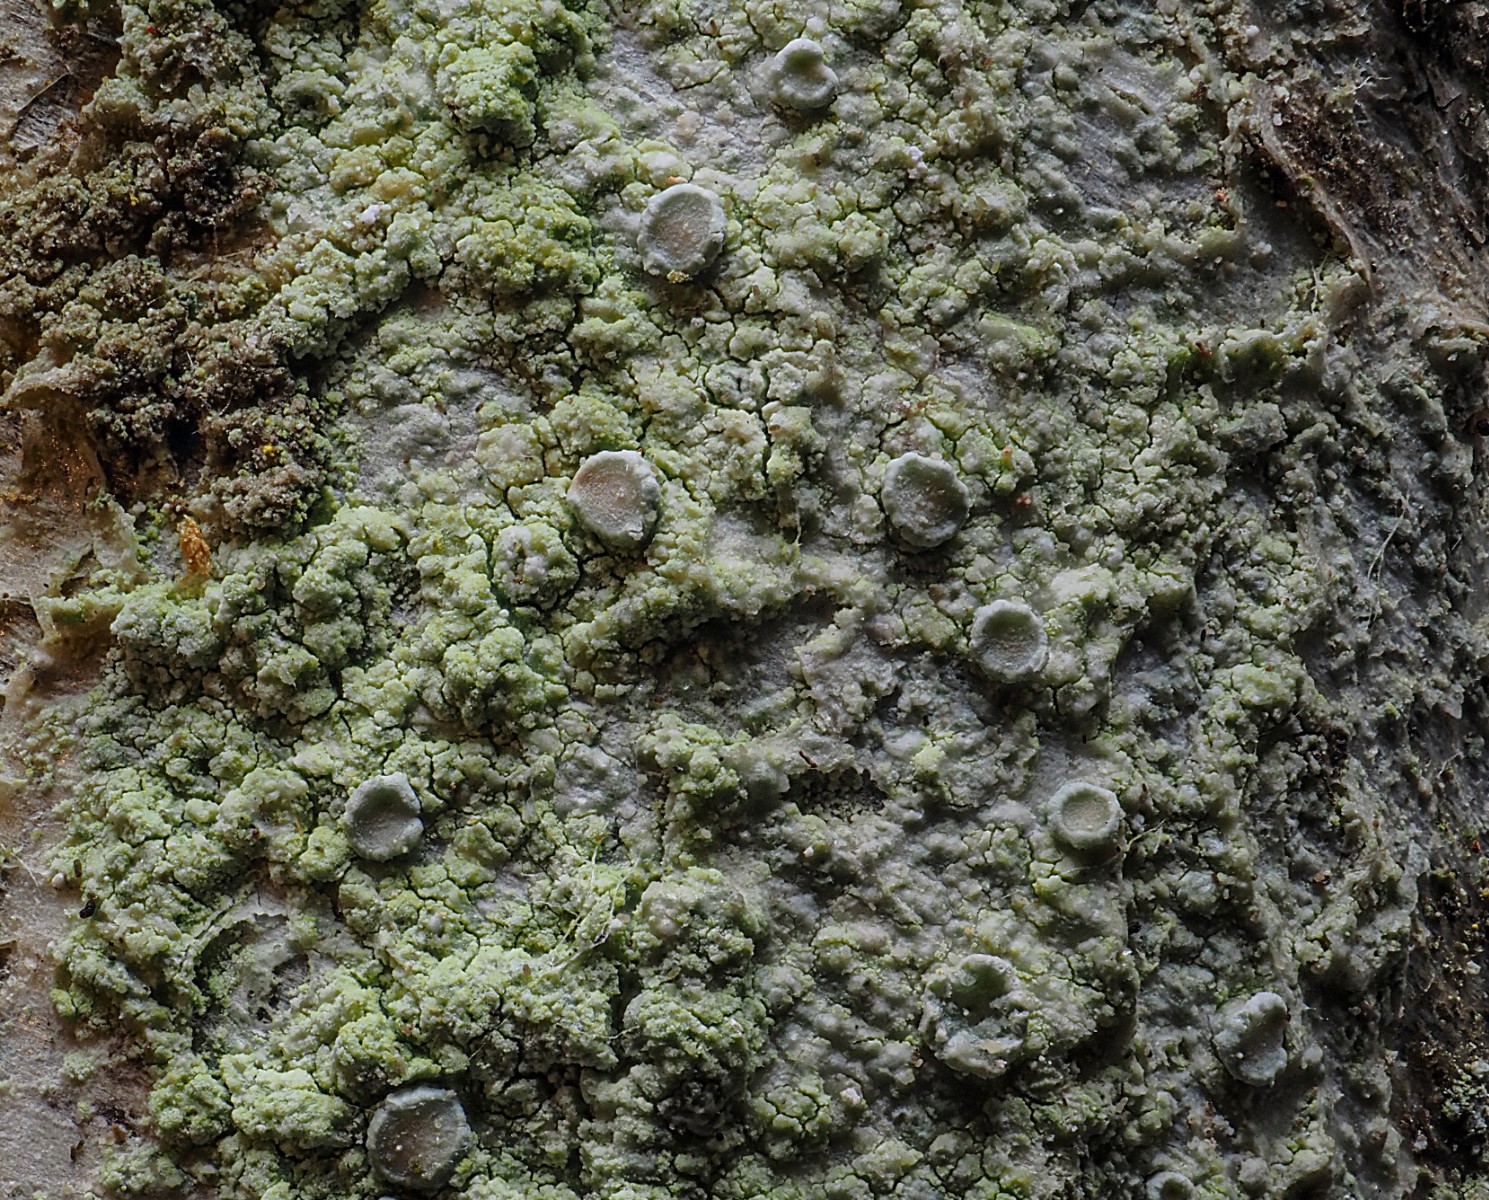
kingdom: Fungi
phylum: Ascomycota
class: Lecanoromycetes
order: Lecanorales
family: Lecanoraceae
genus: Lecanora
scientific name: Lecanora barkmaniana
